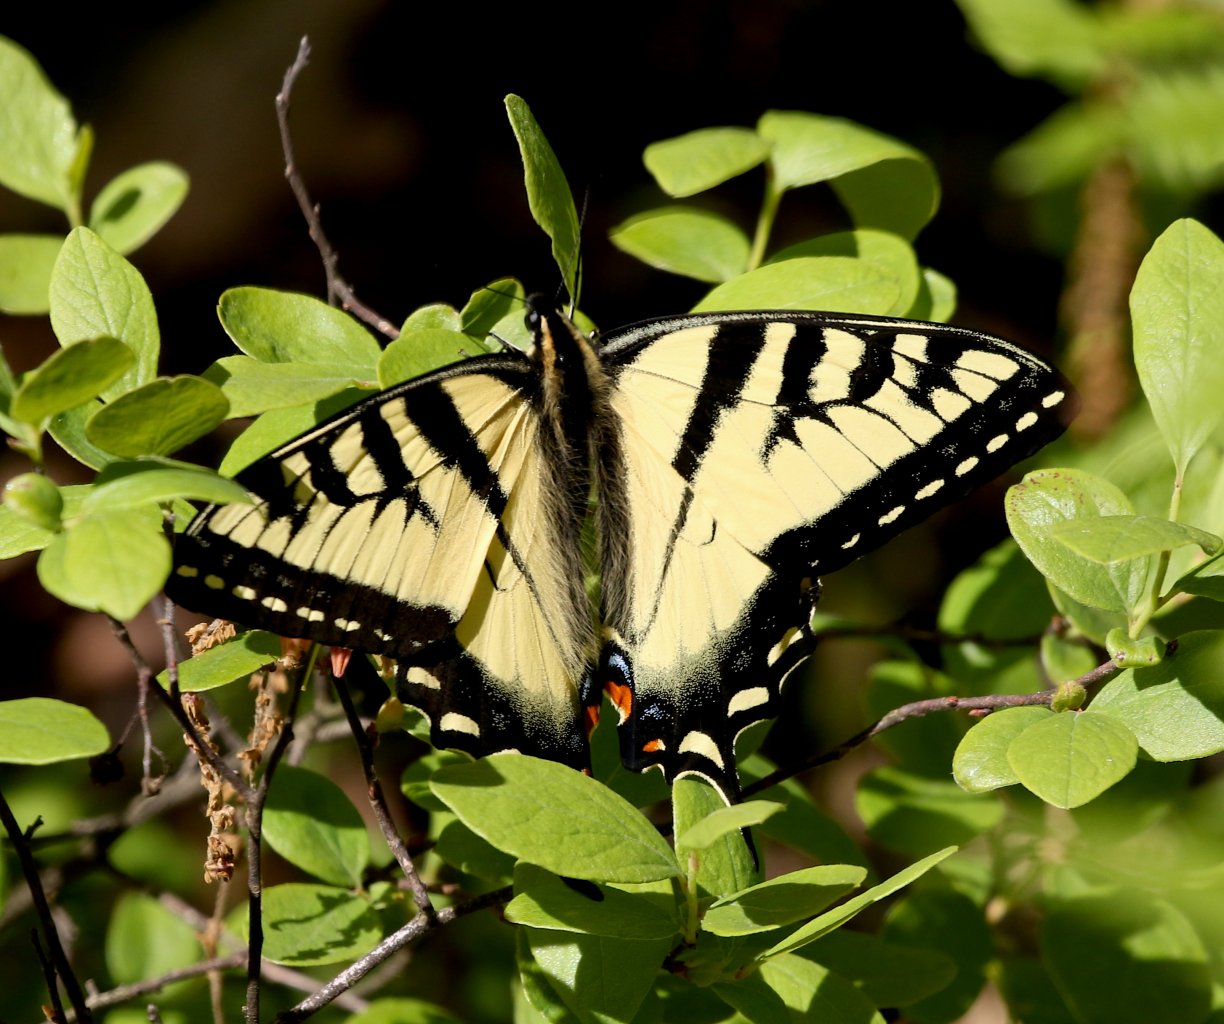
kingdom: Animalia
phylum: Arthropoda
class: Insecta
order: Lepidoptera
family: Papilionidae
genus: Pterourus
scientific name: Pterourus canadensis
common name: Canadian Tiger Swallowtail
